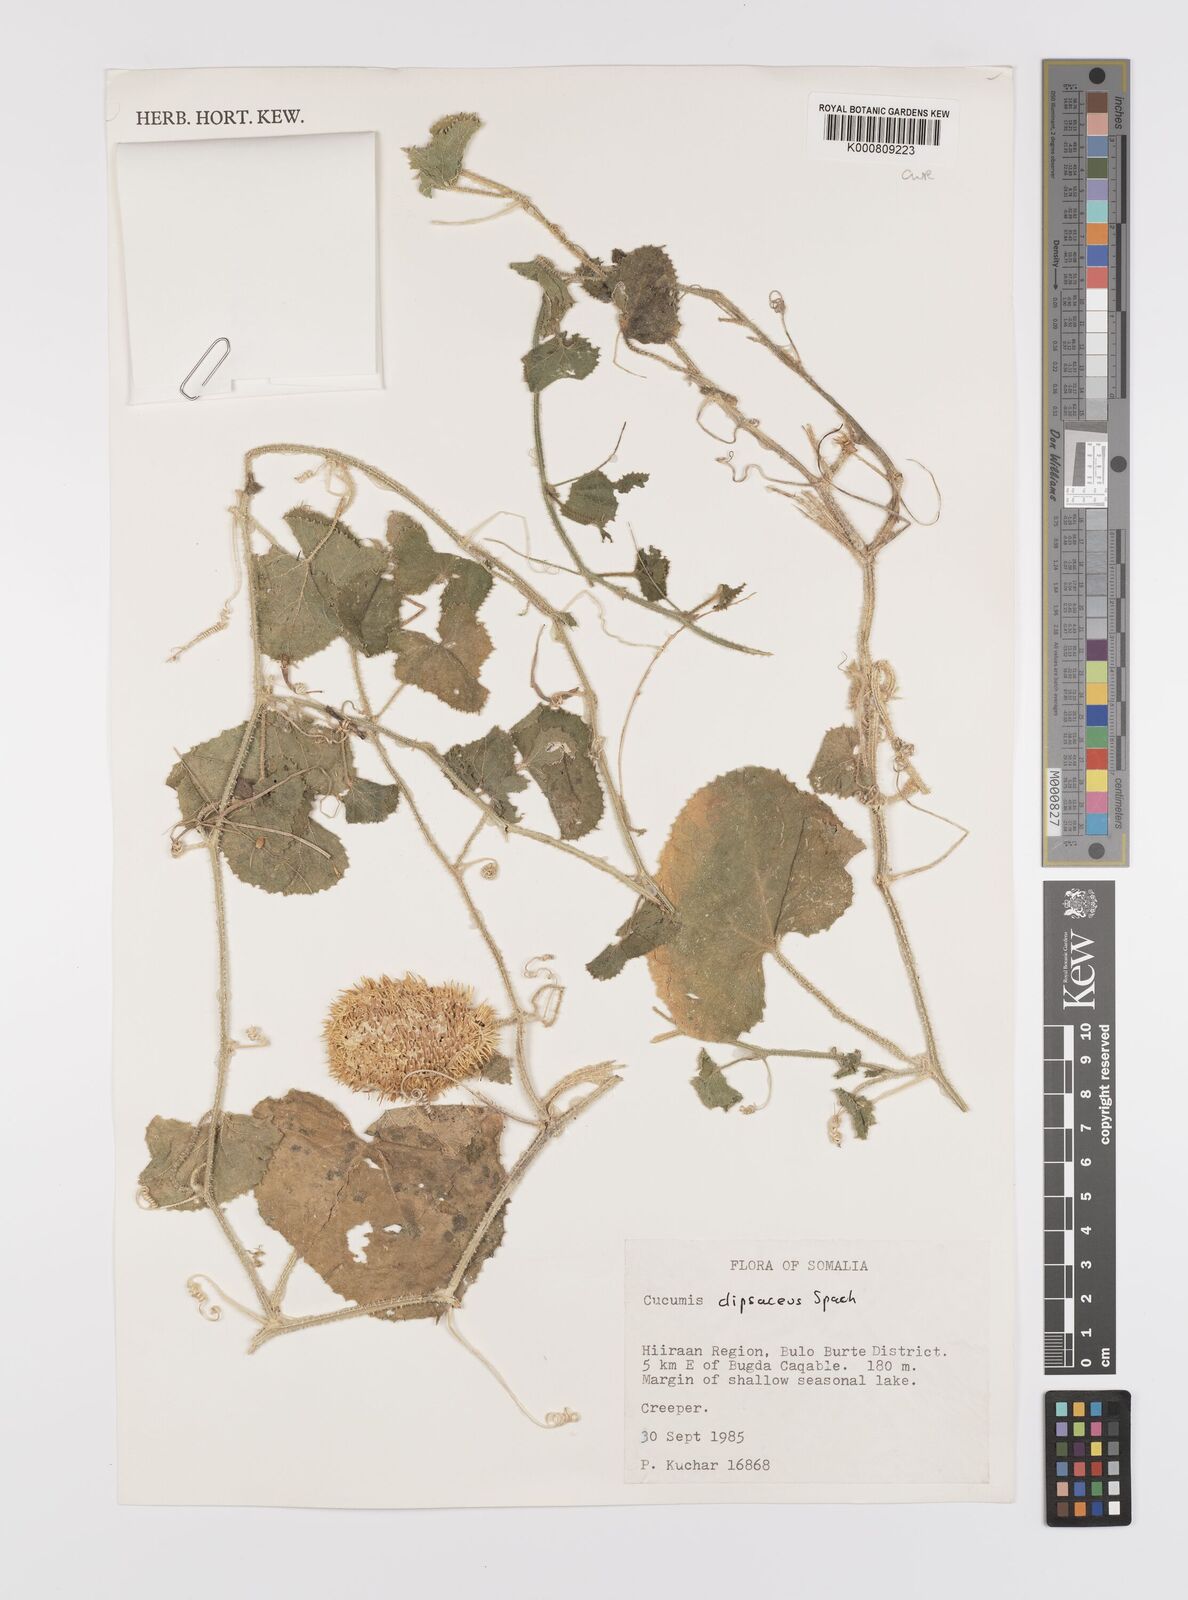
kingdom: Plantae
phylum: Tracheophyta
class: Magnoliopsida
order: Cucurbitales
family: Cucurbitaceae
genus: Cucumis
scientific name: Cucumis dipsaceus
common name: Hedgehog gourd
